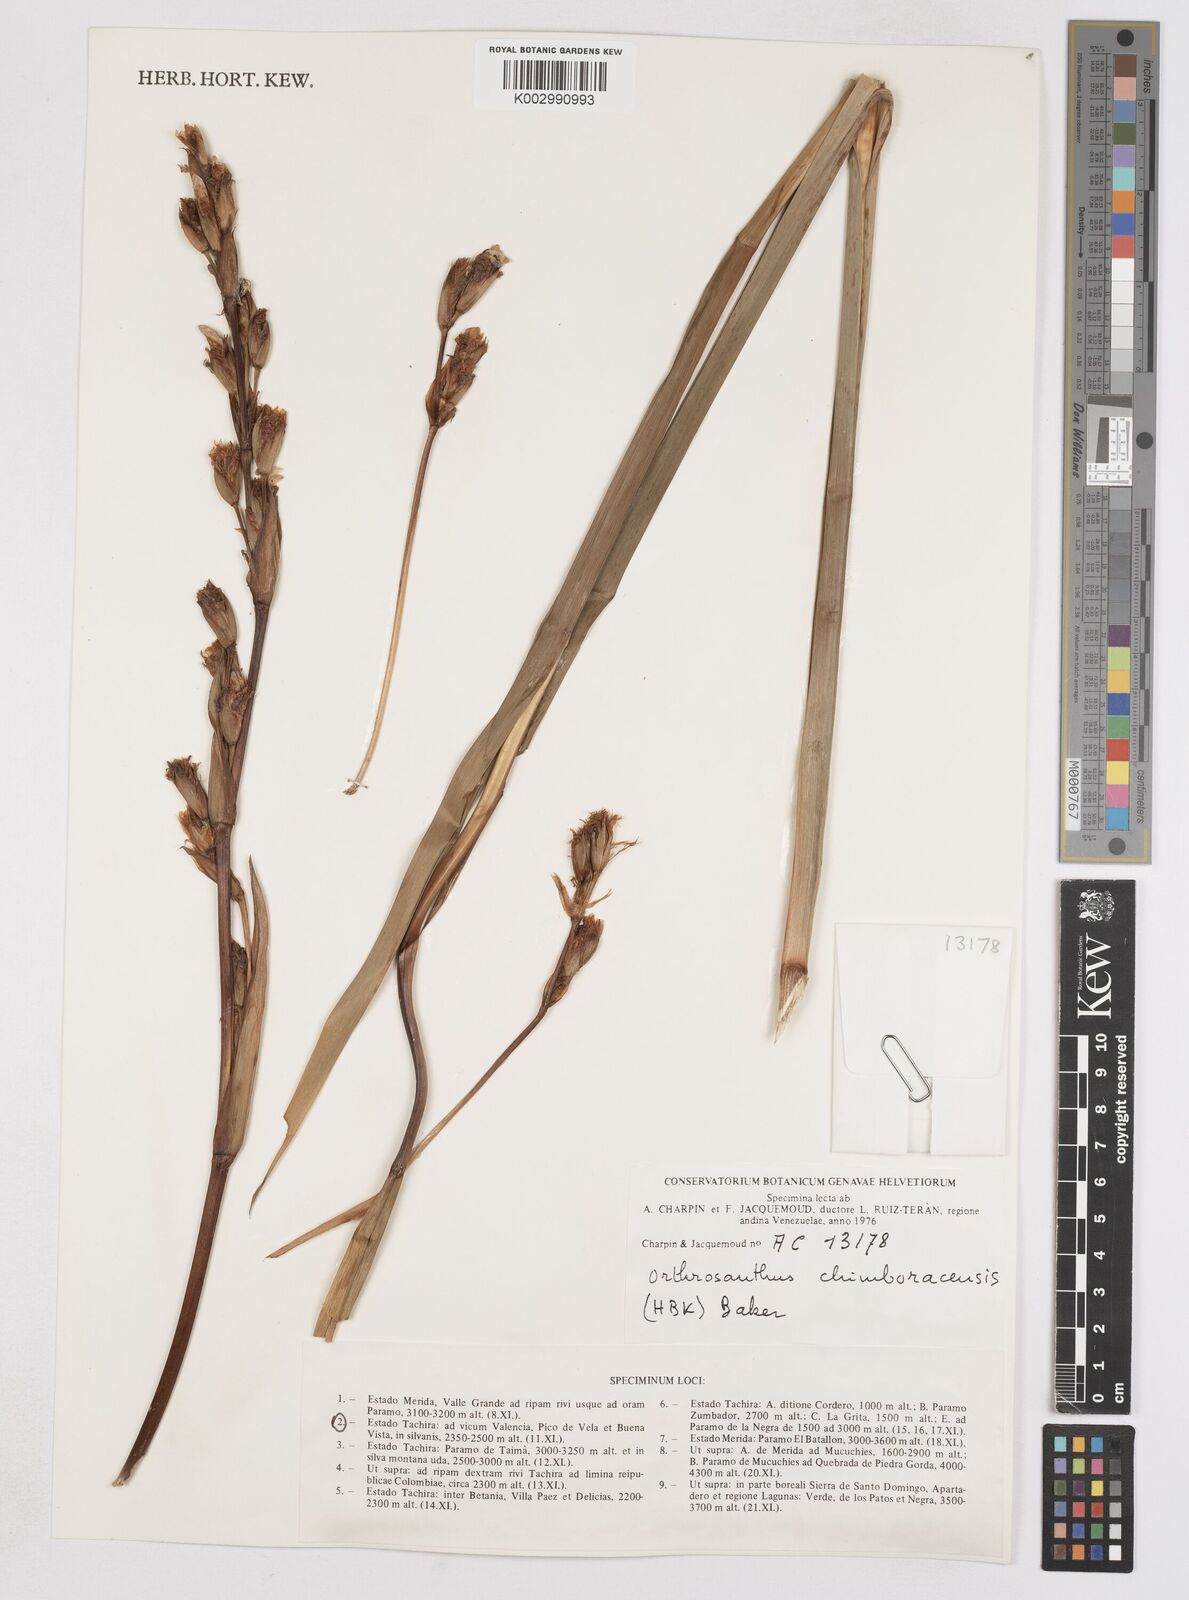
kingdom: Plantae
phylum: Tracheophyta
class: Liliopsida
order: Asparagales
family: Iridaceae
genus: Orthrosanthus
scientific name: Orthrosanthus chimboracensis
